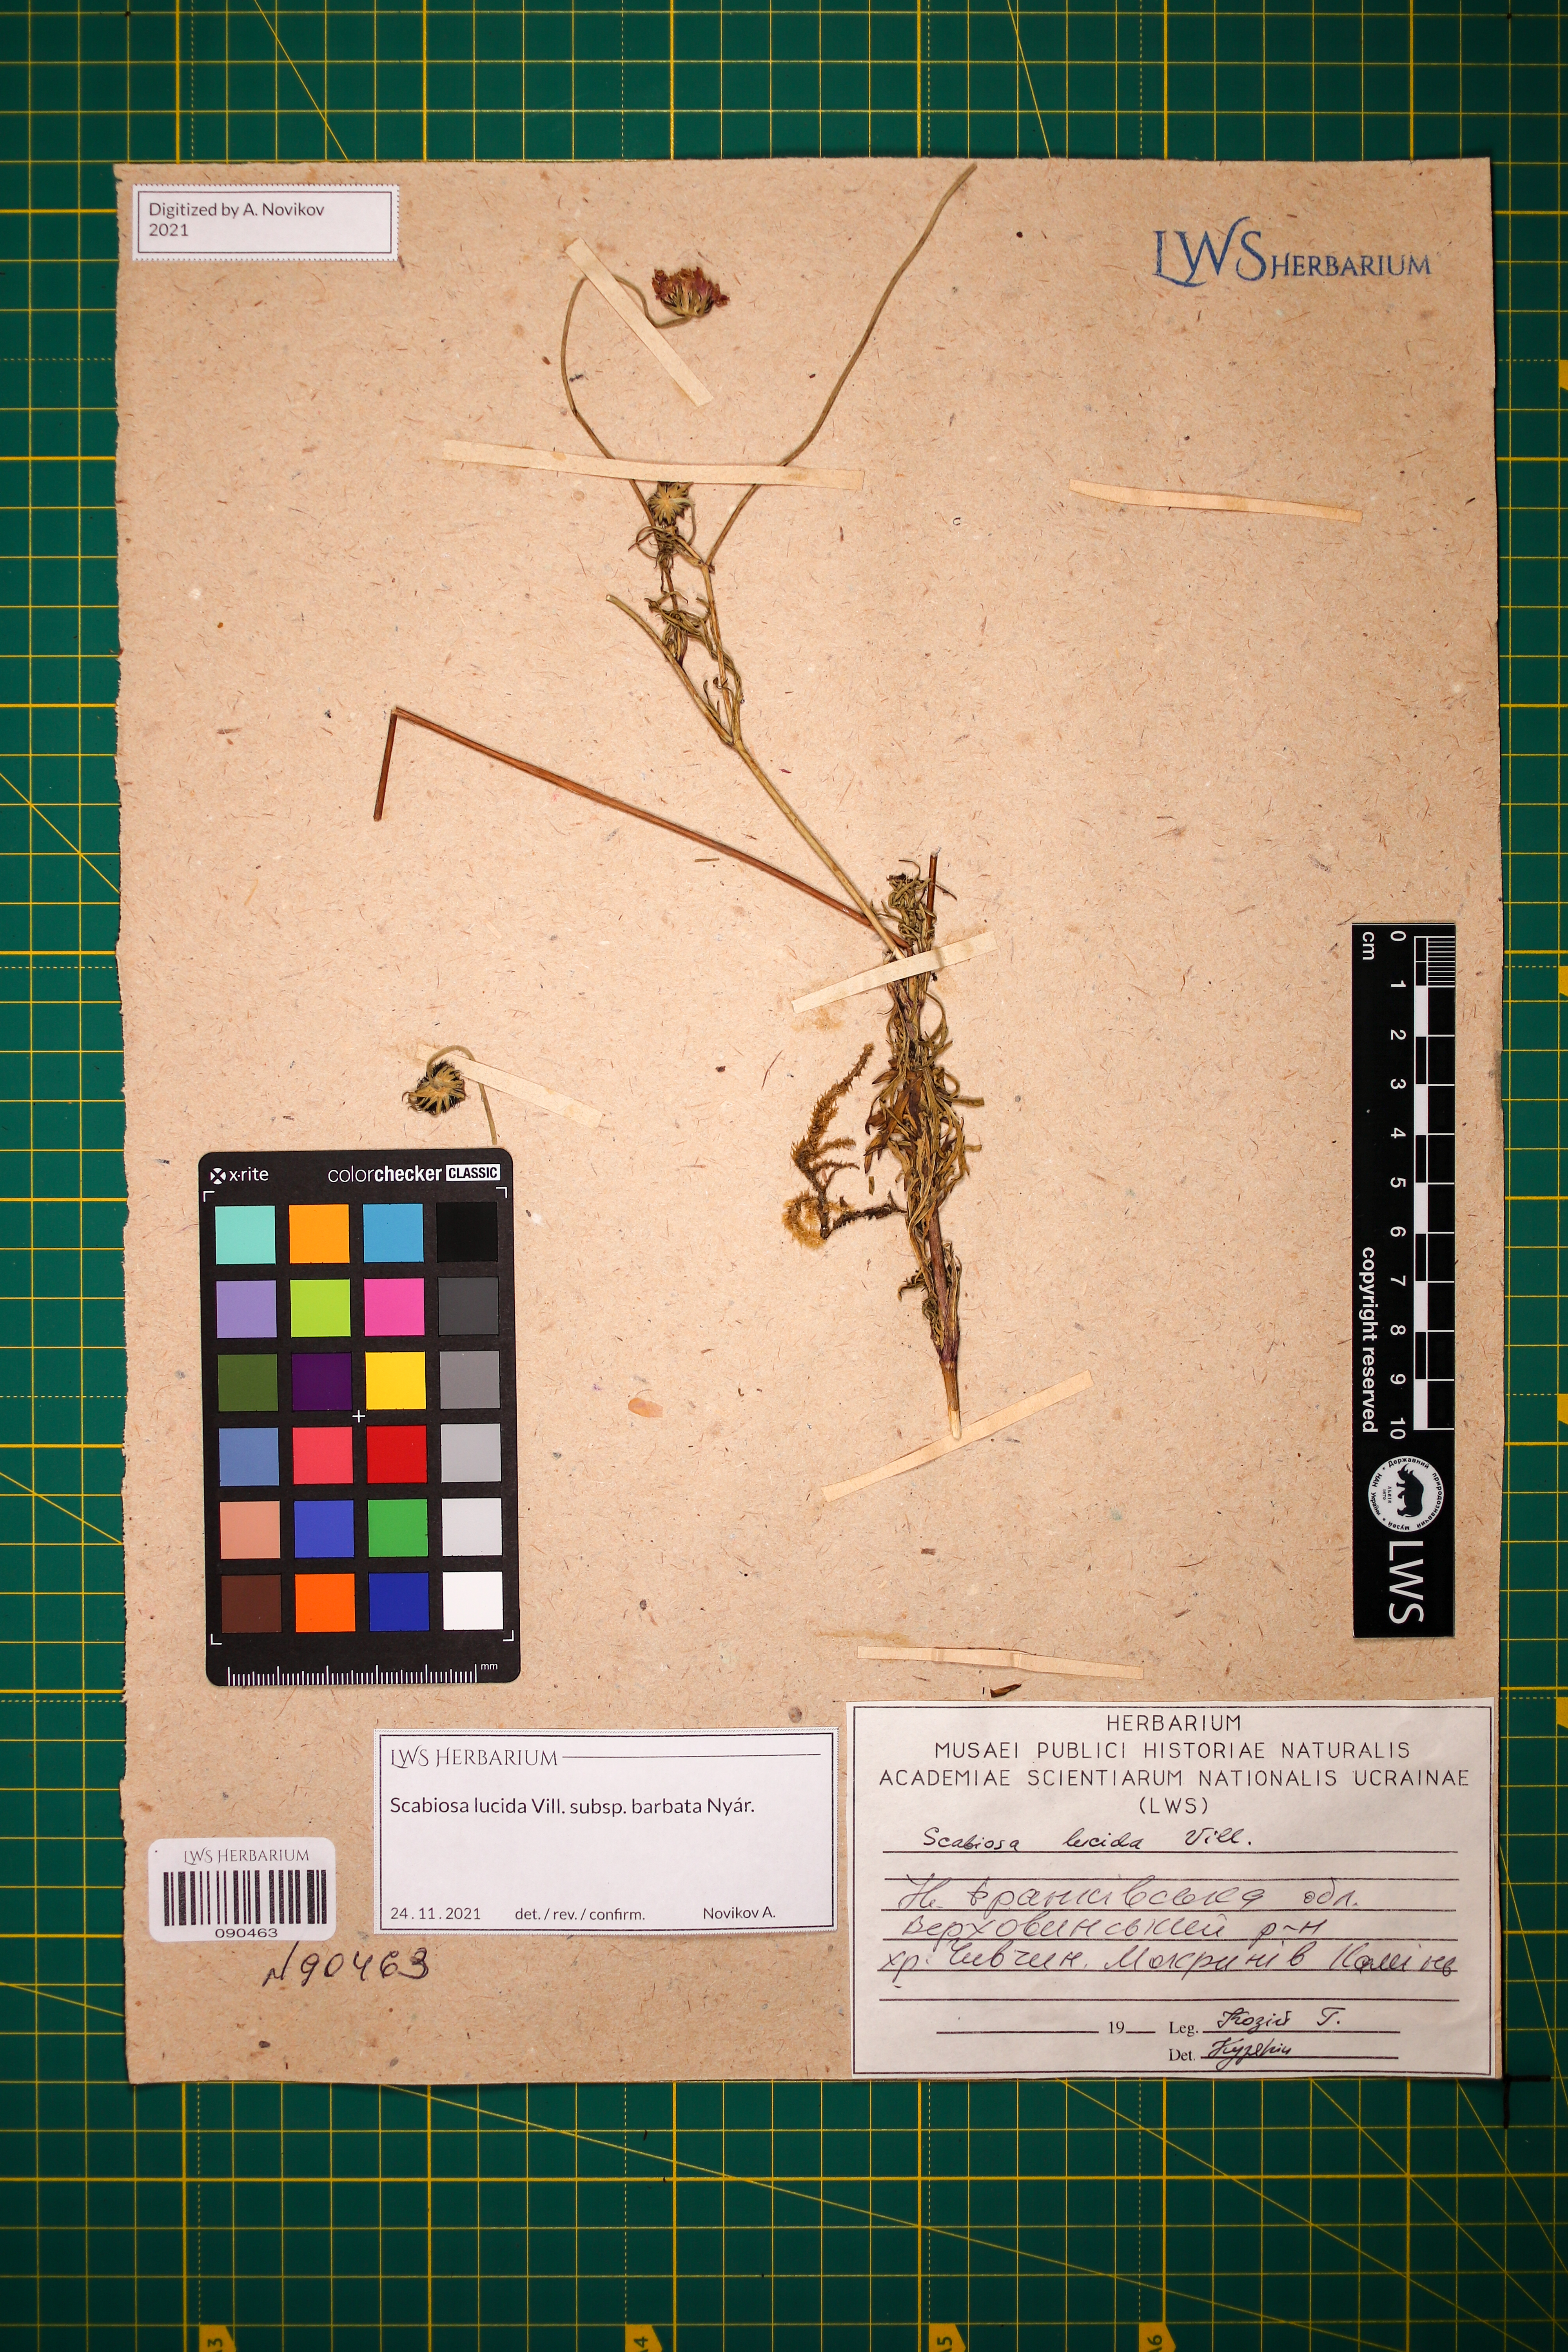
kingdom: Plantae
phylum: Tracheophyta
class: Magnoliopsida
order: Dipsacales
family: Caprifoliaceae
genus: Scabiosa
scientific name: Scabiosa lucida
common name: Shining scabious
